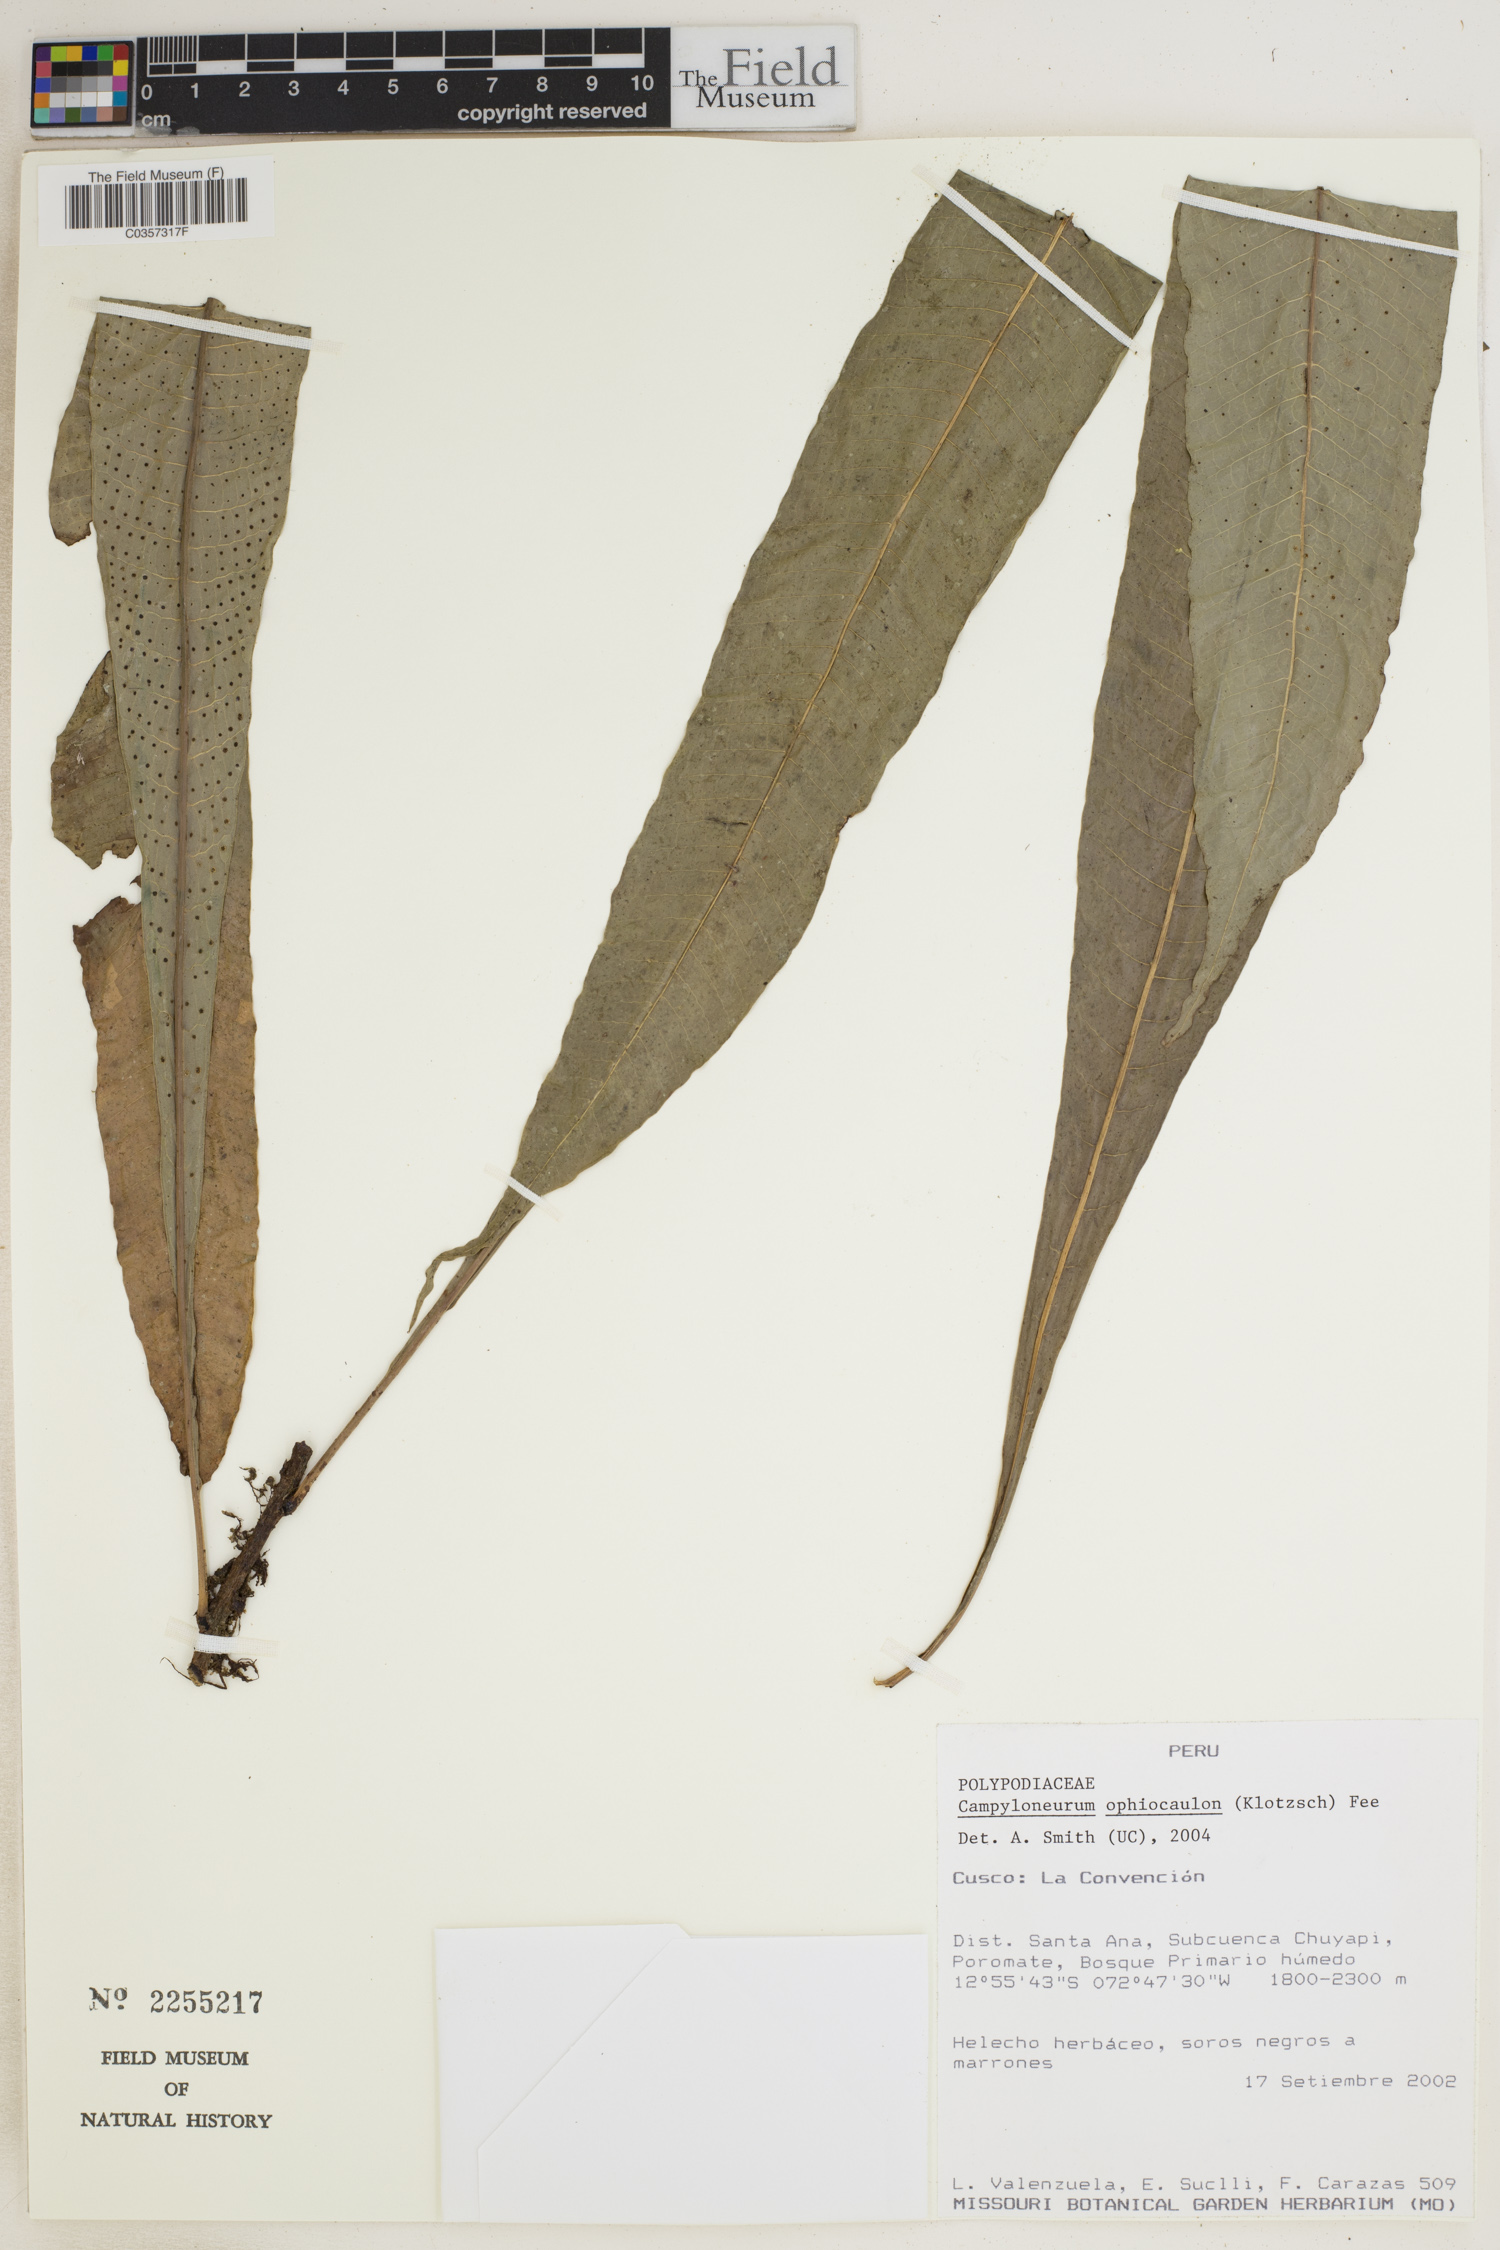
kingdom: Plantae
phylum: Tracheophyta
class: Polypodiopsida
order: Polypodiales
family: Polypodiaceae
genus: Campyloneurum
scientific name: Campyloneurum ophiocaulon
